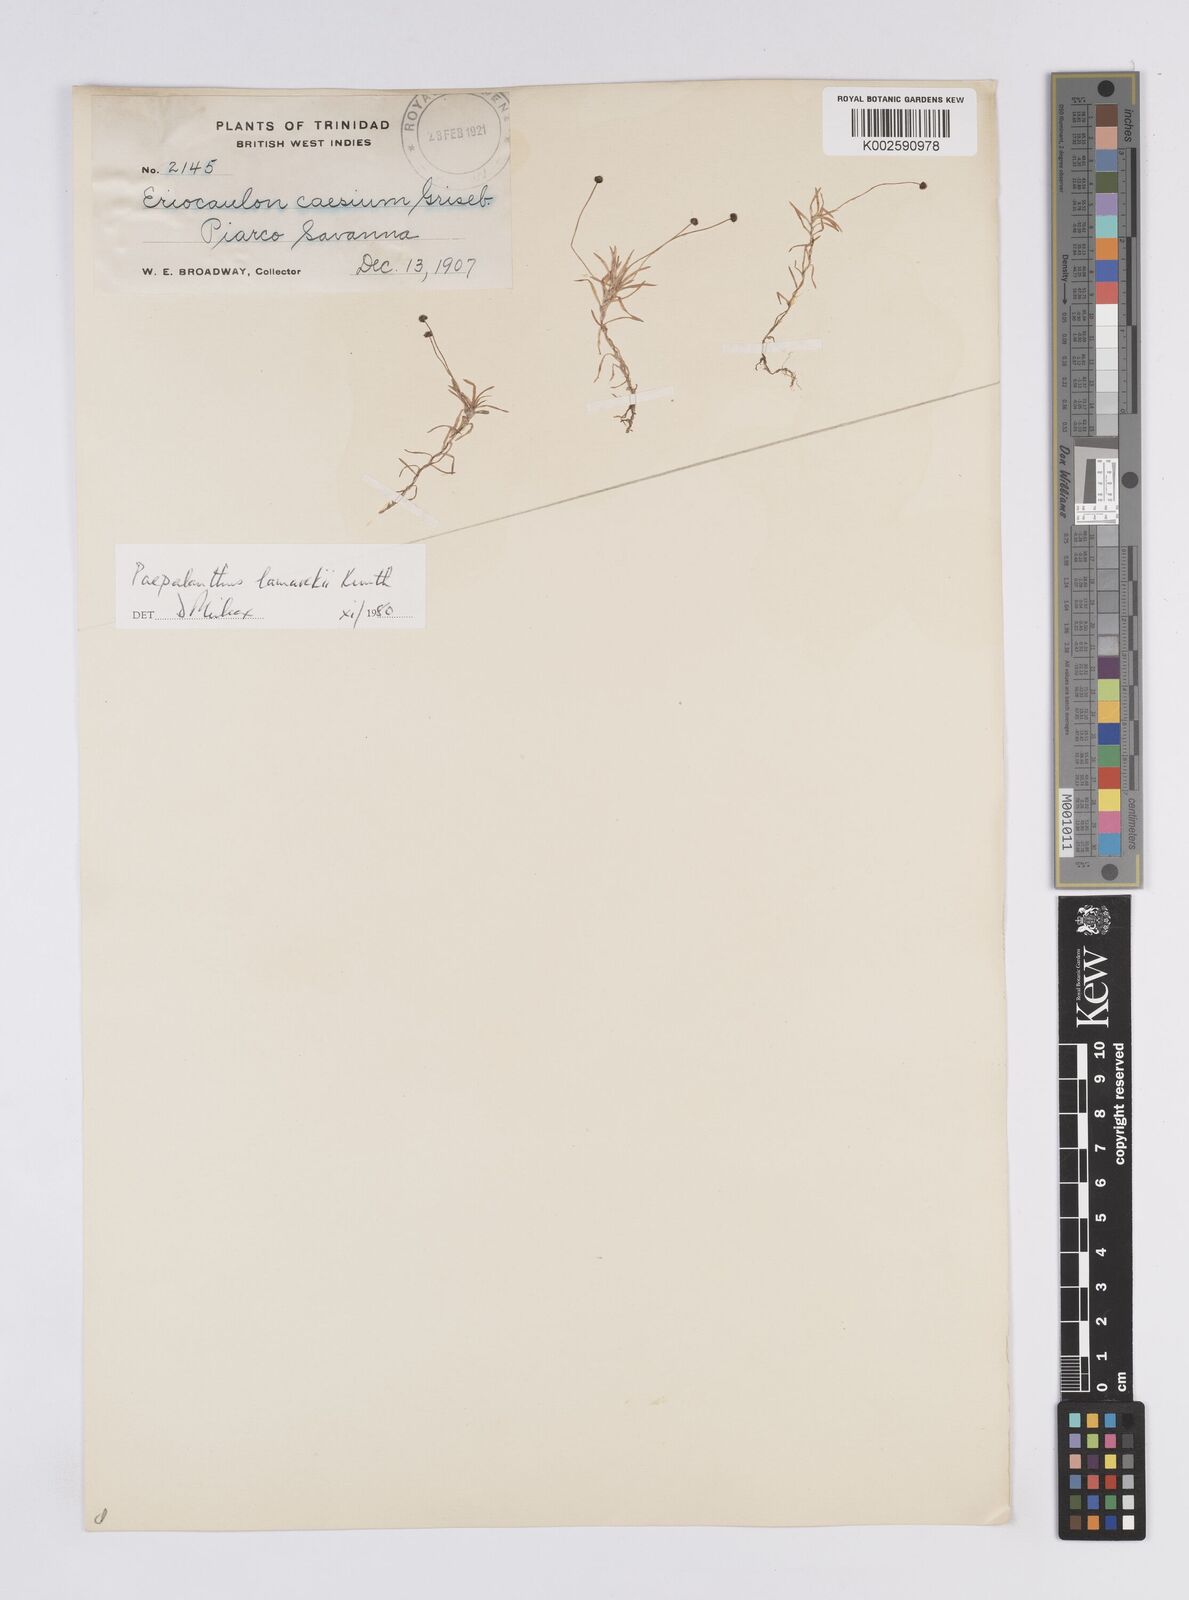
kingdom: Plantae
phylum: Tracheophyta
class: Liliopsida
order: Poales
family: Eriocaulaceae
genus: Paepalanthus
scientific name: Paepalanthus lamarckii
